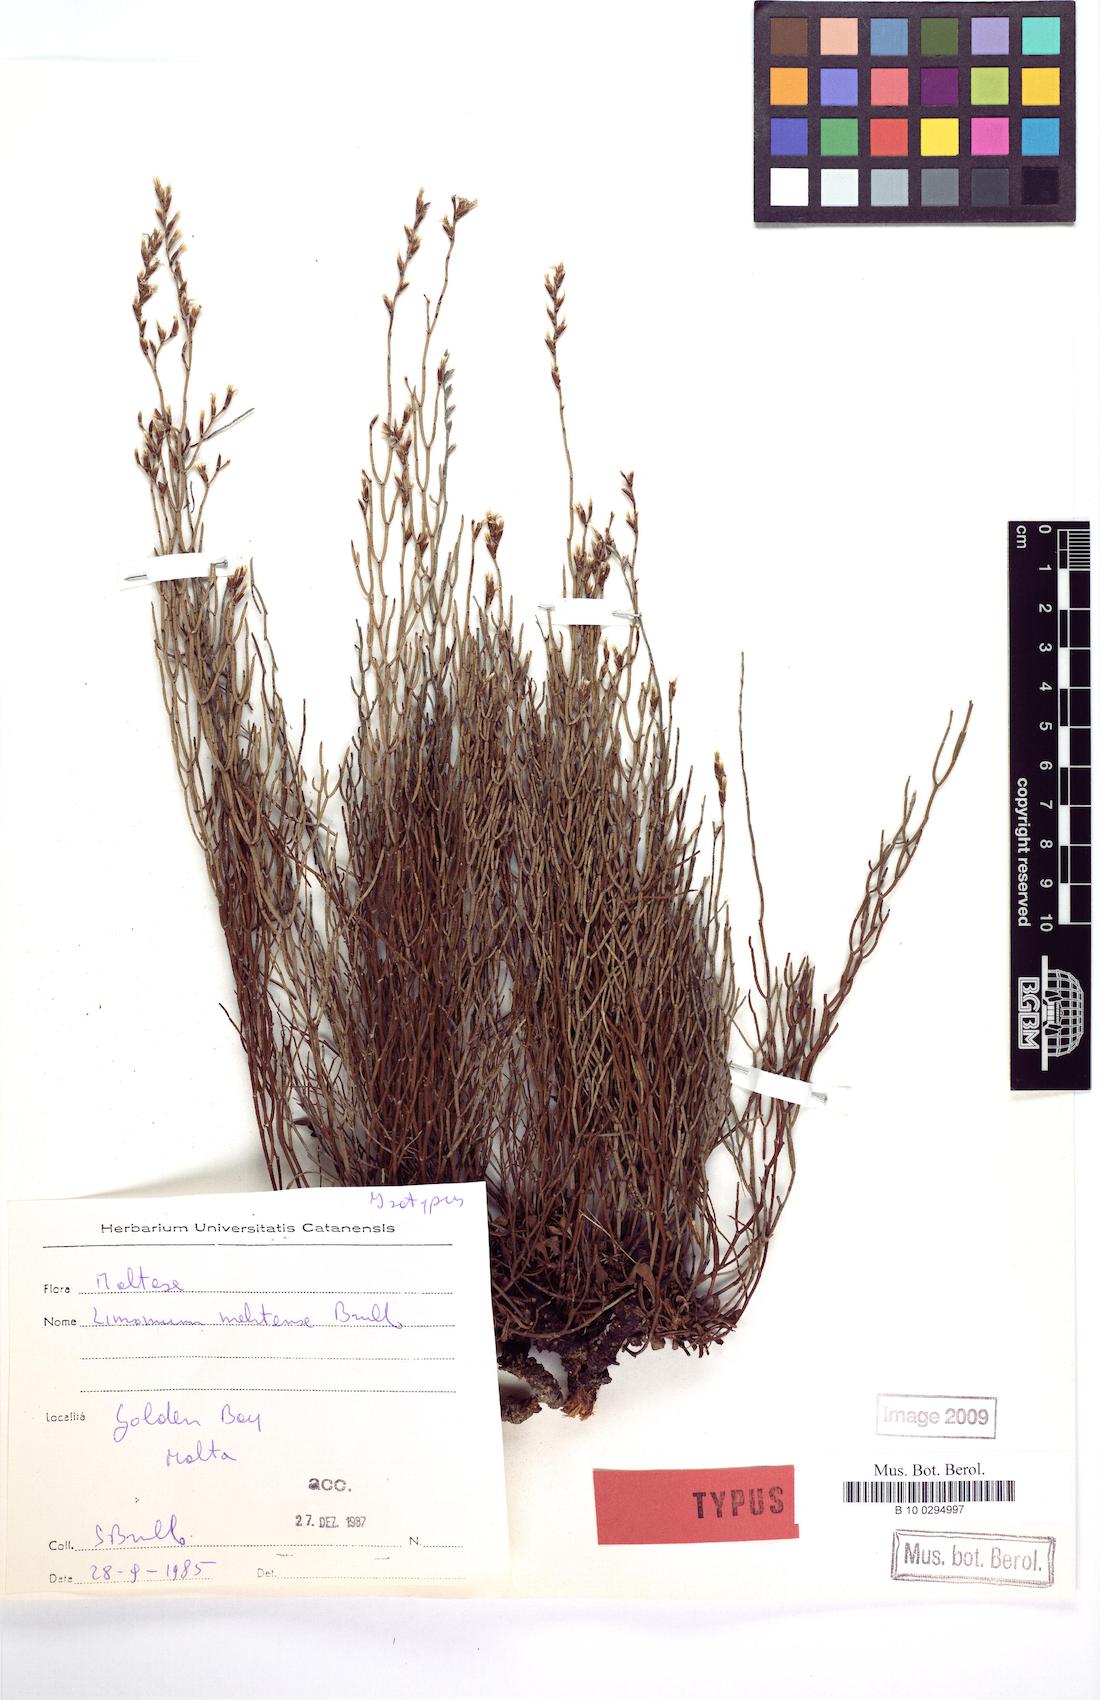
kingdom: Plantae
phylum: Tracheophyta
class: Magnoliopsida
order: Caryophyllales
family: Plumbaginaceae
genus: Limonium
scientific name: Limonium melitense
